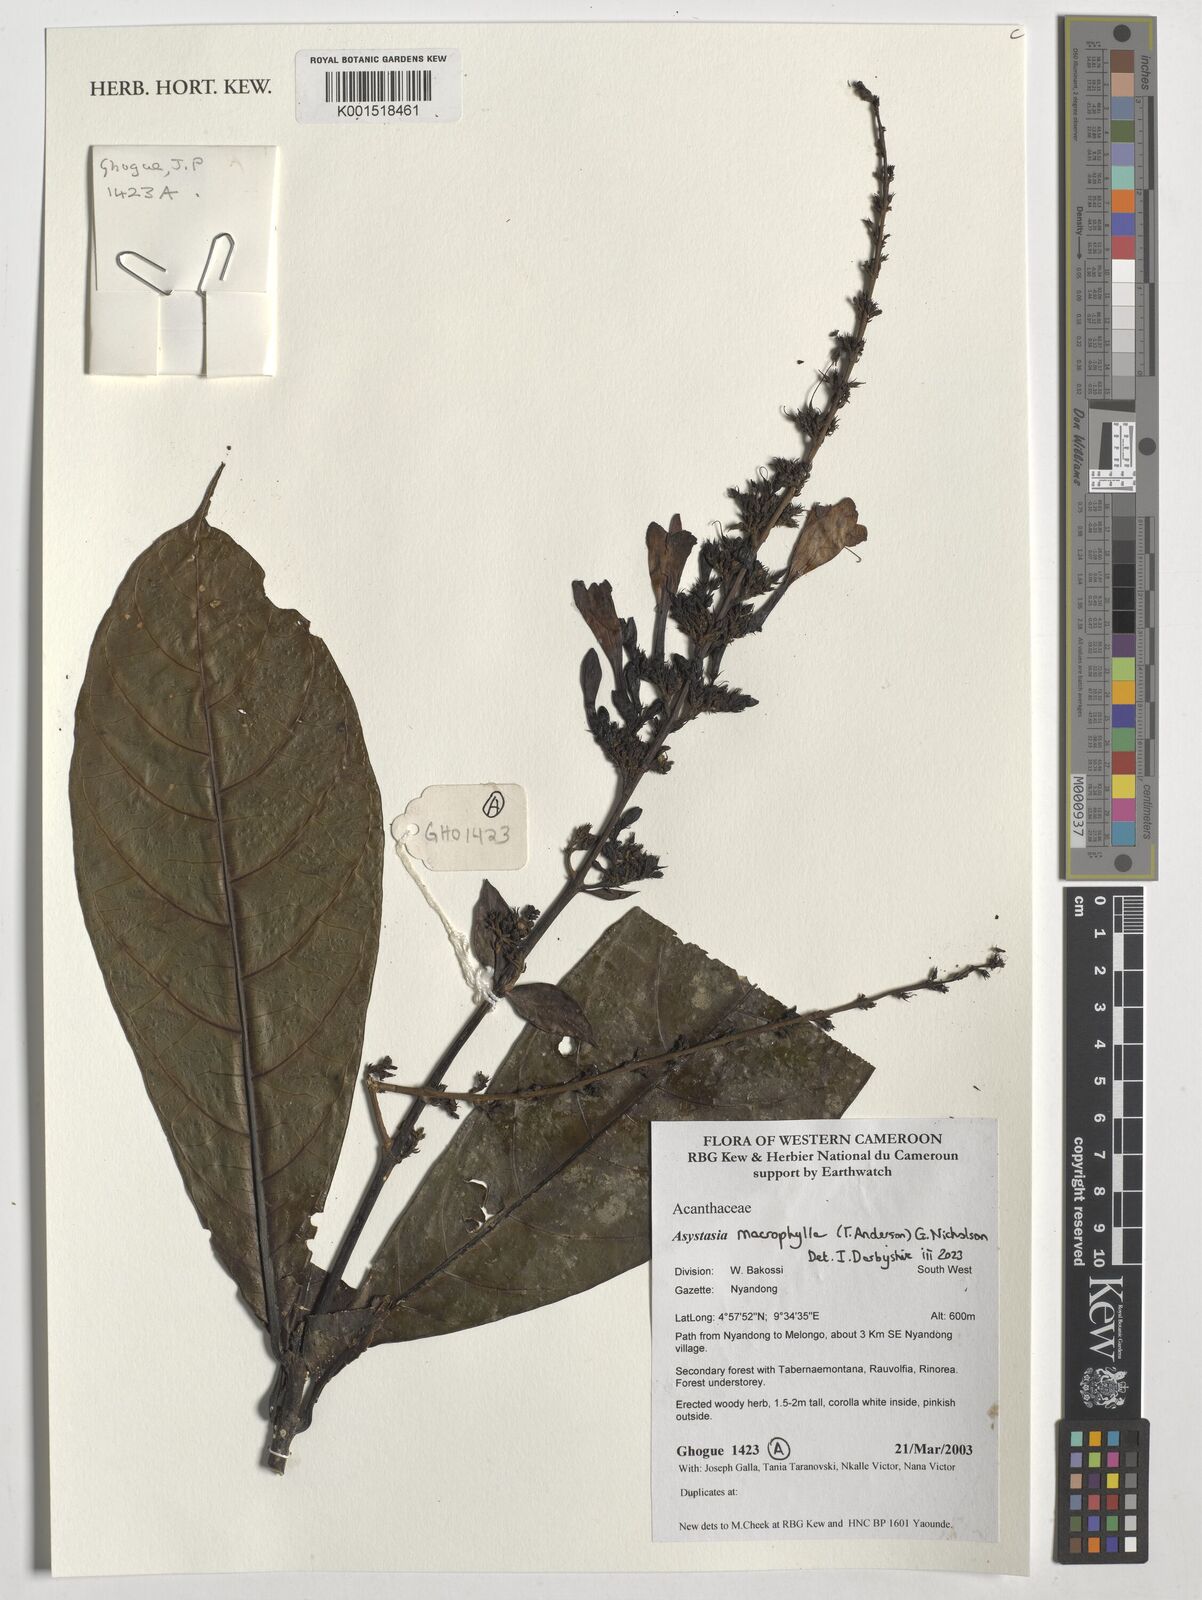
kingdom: Plantae
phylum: Tracheophyta
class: Magnoliopsida
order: Lamiales
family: Acanthaceae
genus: Asystasia
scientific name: Asystasia macrophylla
